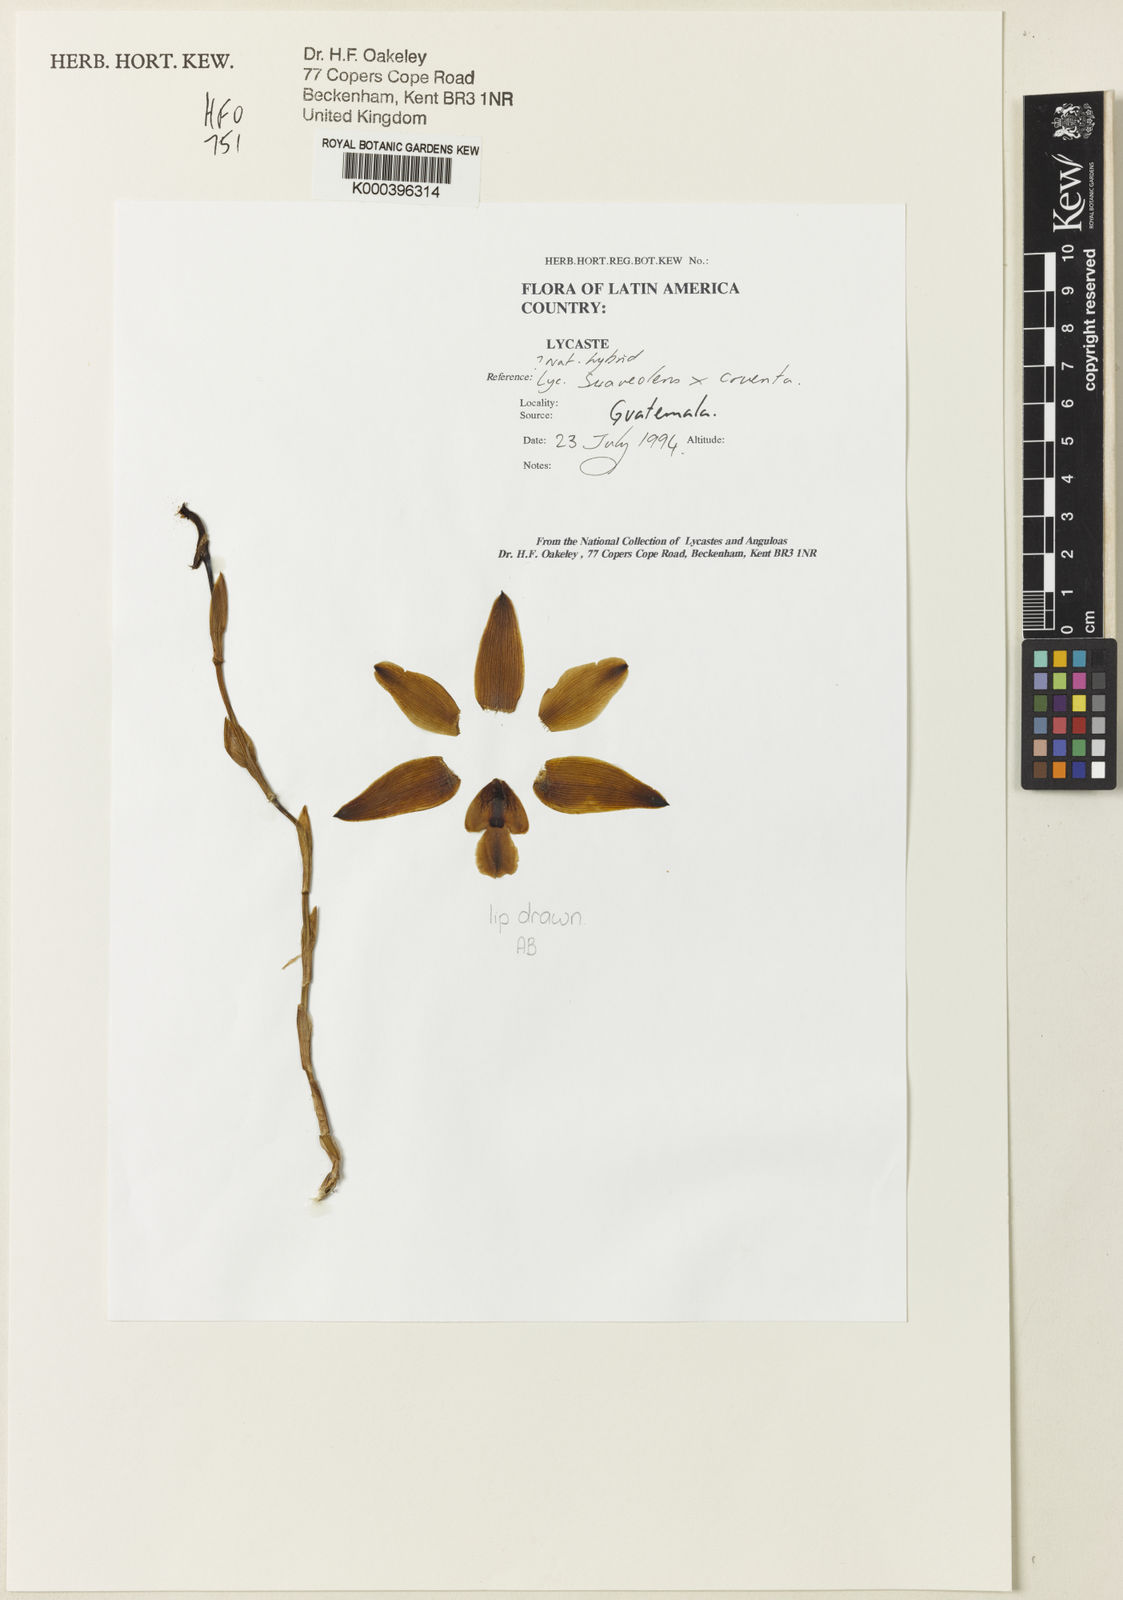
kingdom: Plantae
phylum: Tracheophyta
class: Liliopsida
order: Asparagales
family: Orchidaceae
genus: Lycaste
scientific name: Lycaste suaveolens
